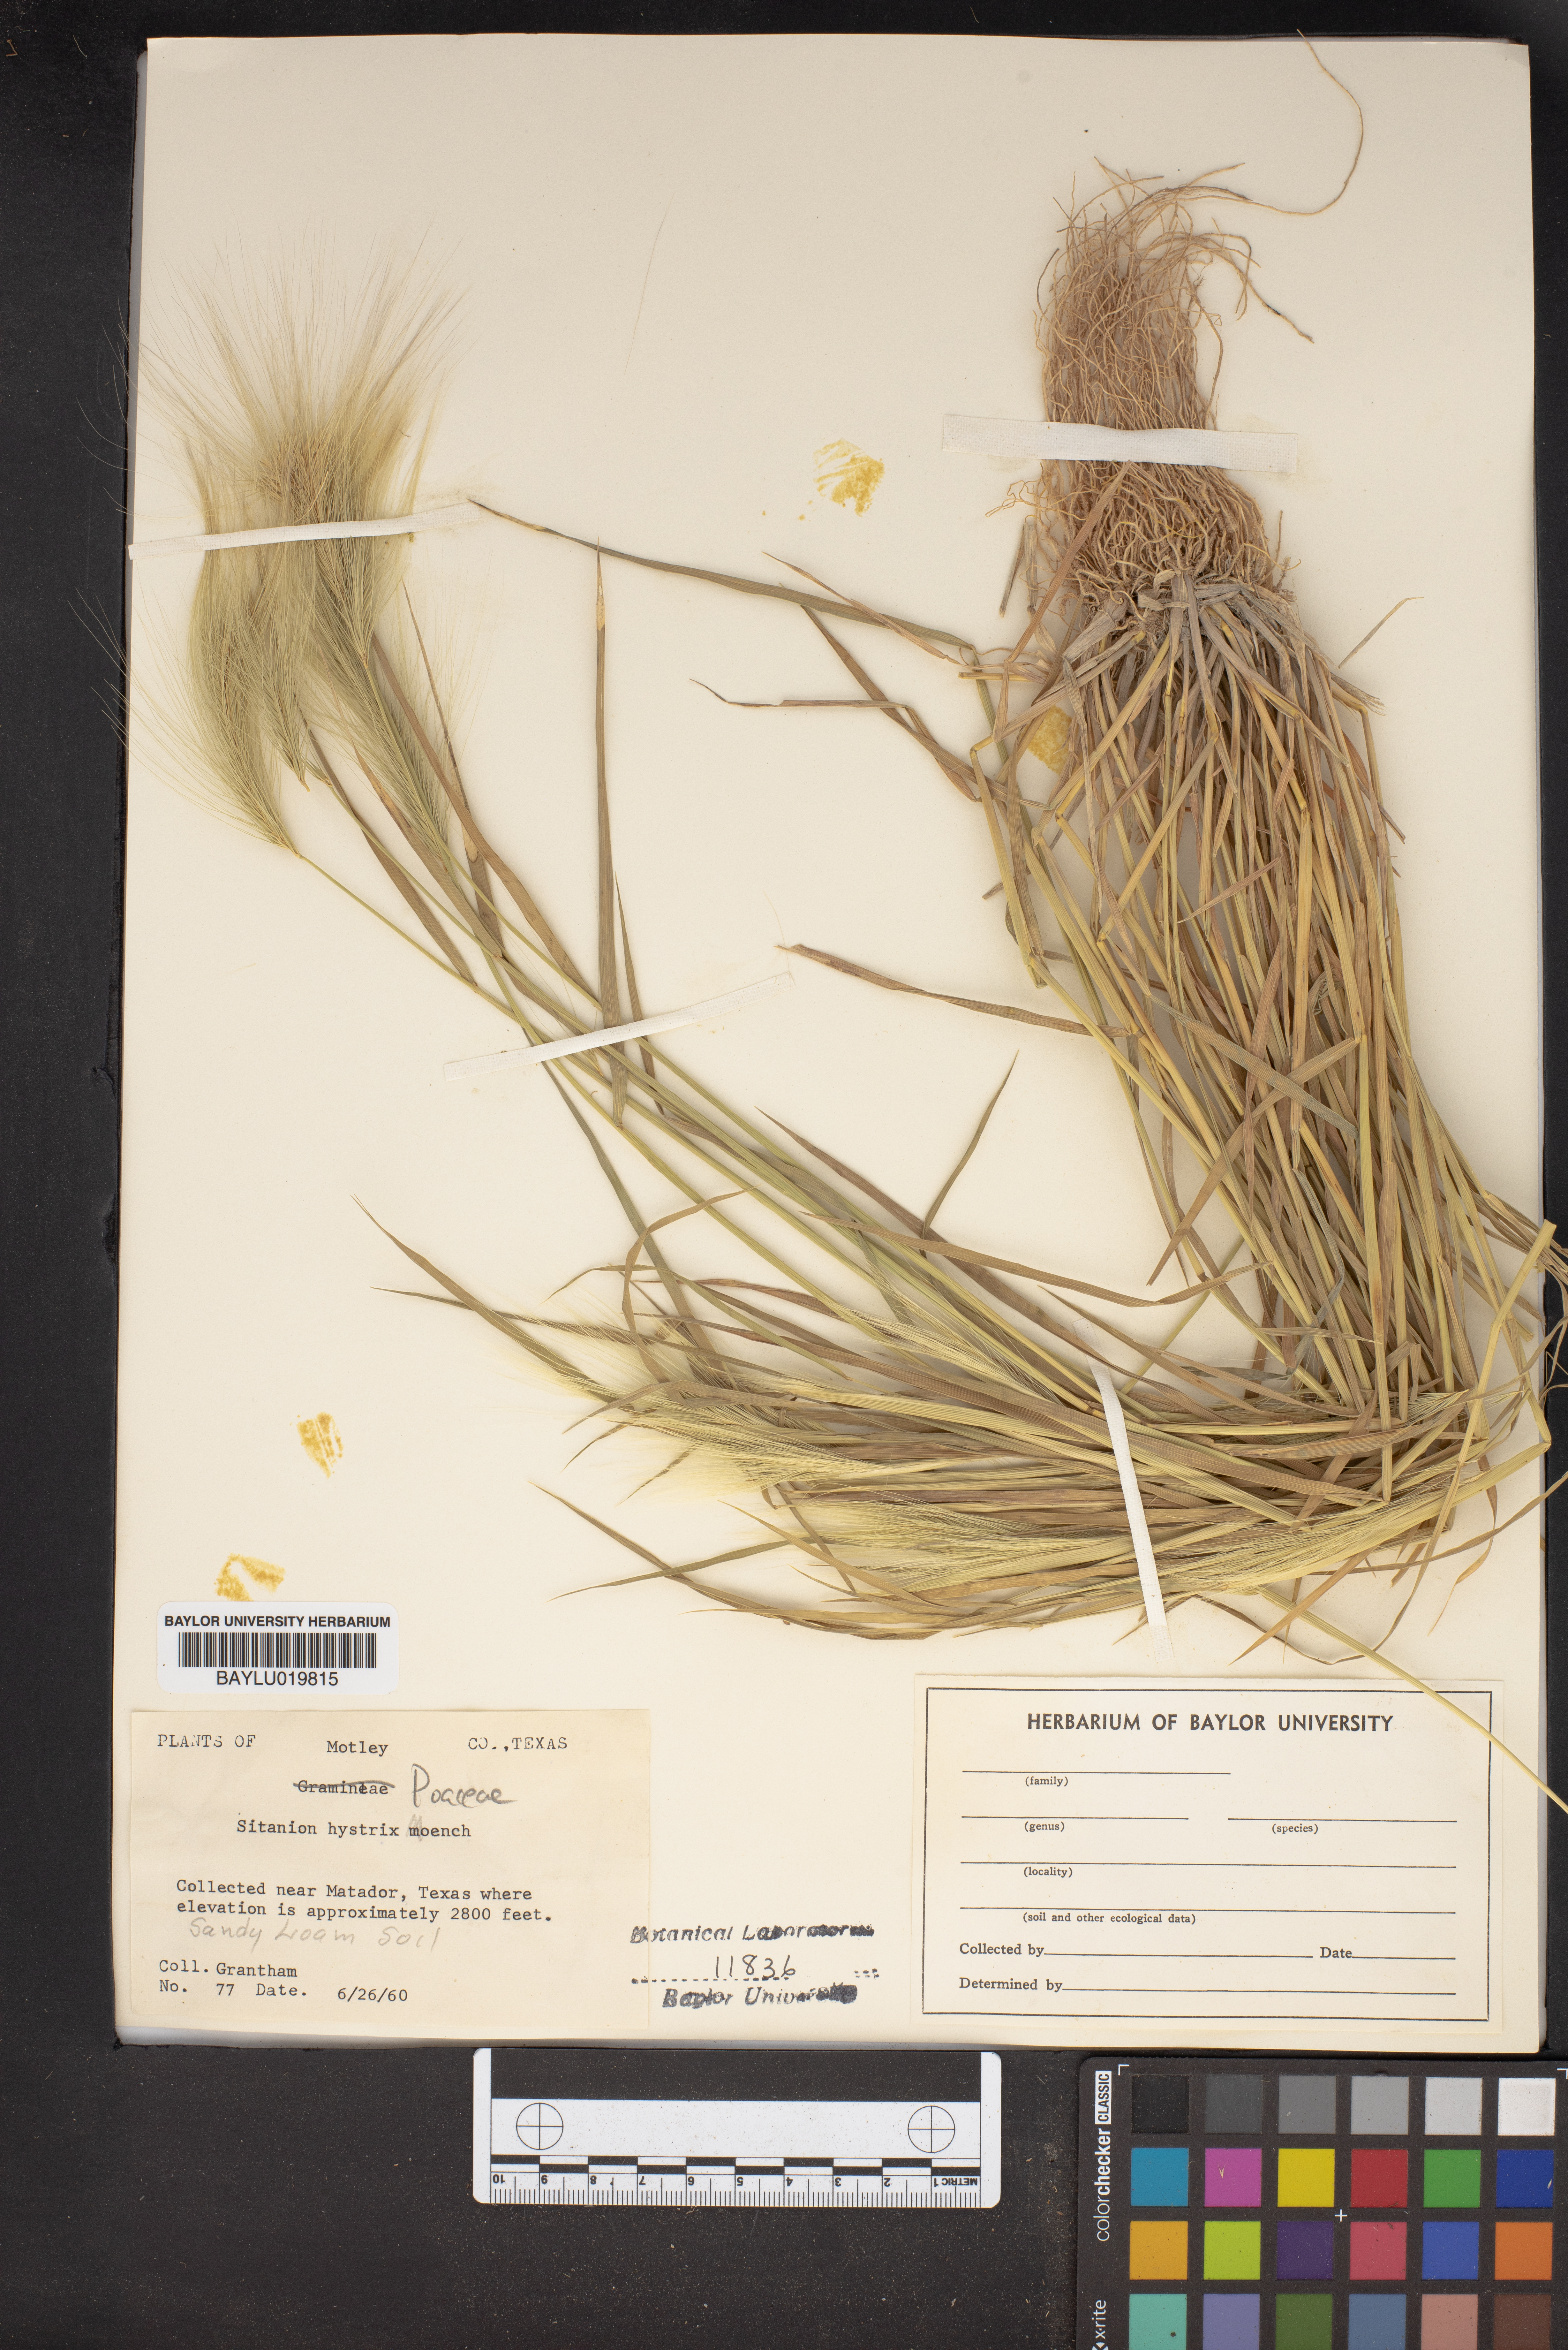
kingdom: Plantae
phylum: Tracheophyta
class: Liliopsida
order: Poales
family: Poaceae
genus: Elymus
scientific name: Elymus elymoides
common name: Bottlebrush squirreltail
